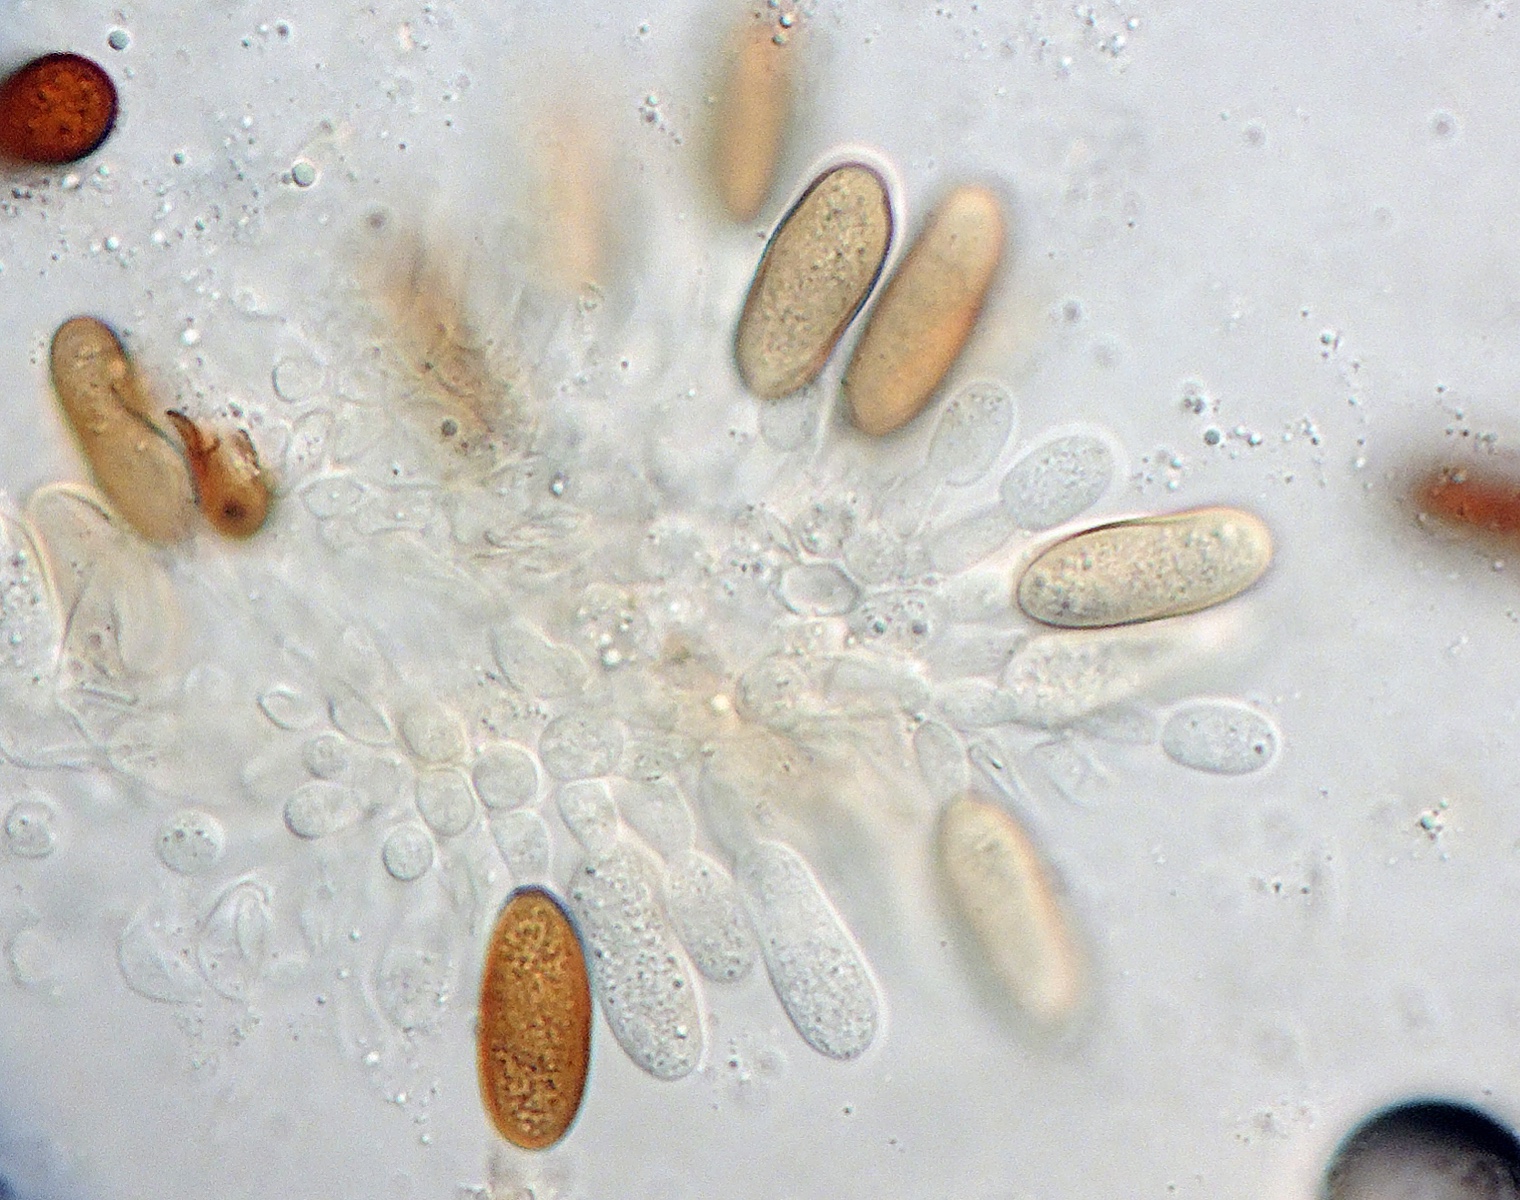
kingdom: Fungi
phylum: Ascomycota
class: Dothideomycetes
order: Botryosphaeriales
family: Botryosphaeriaceae
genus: Diplodia
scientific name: Diplodia melaena
